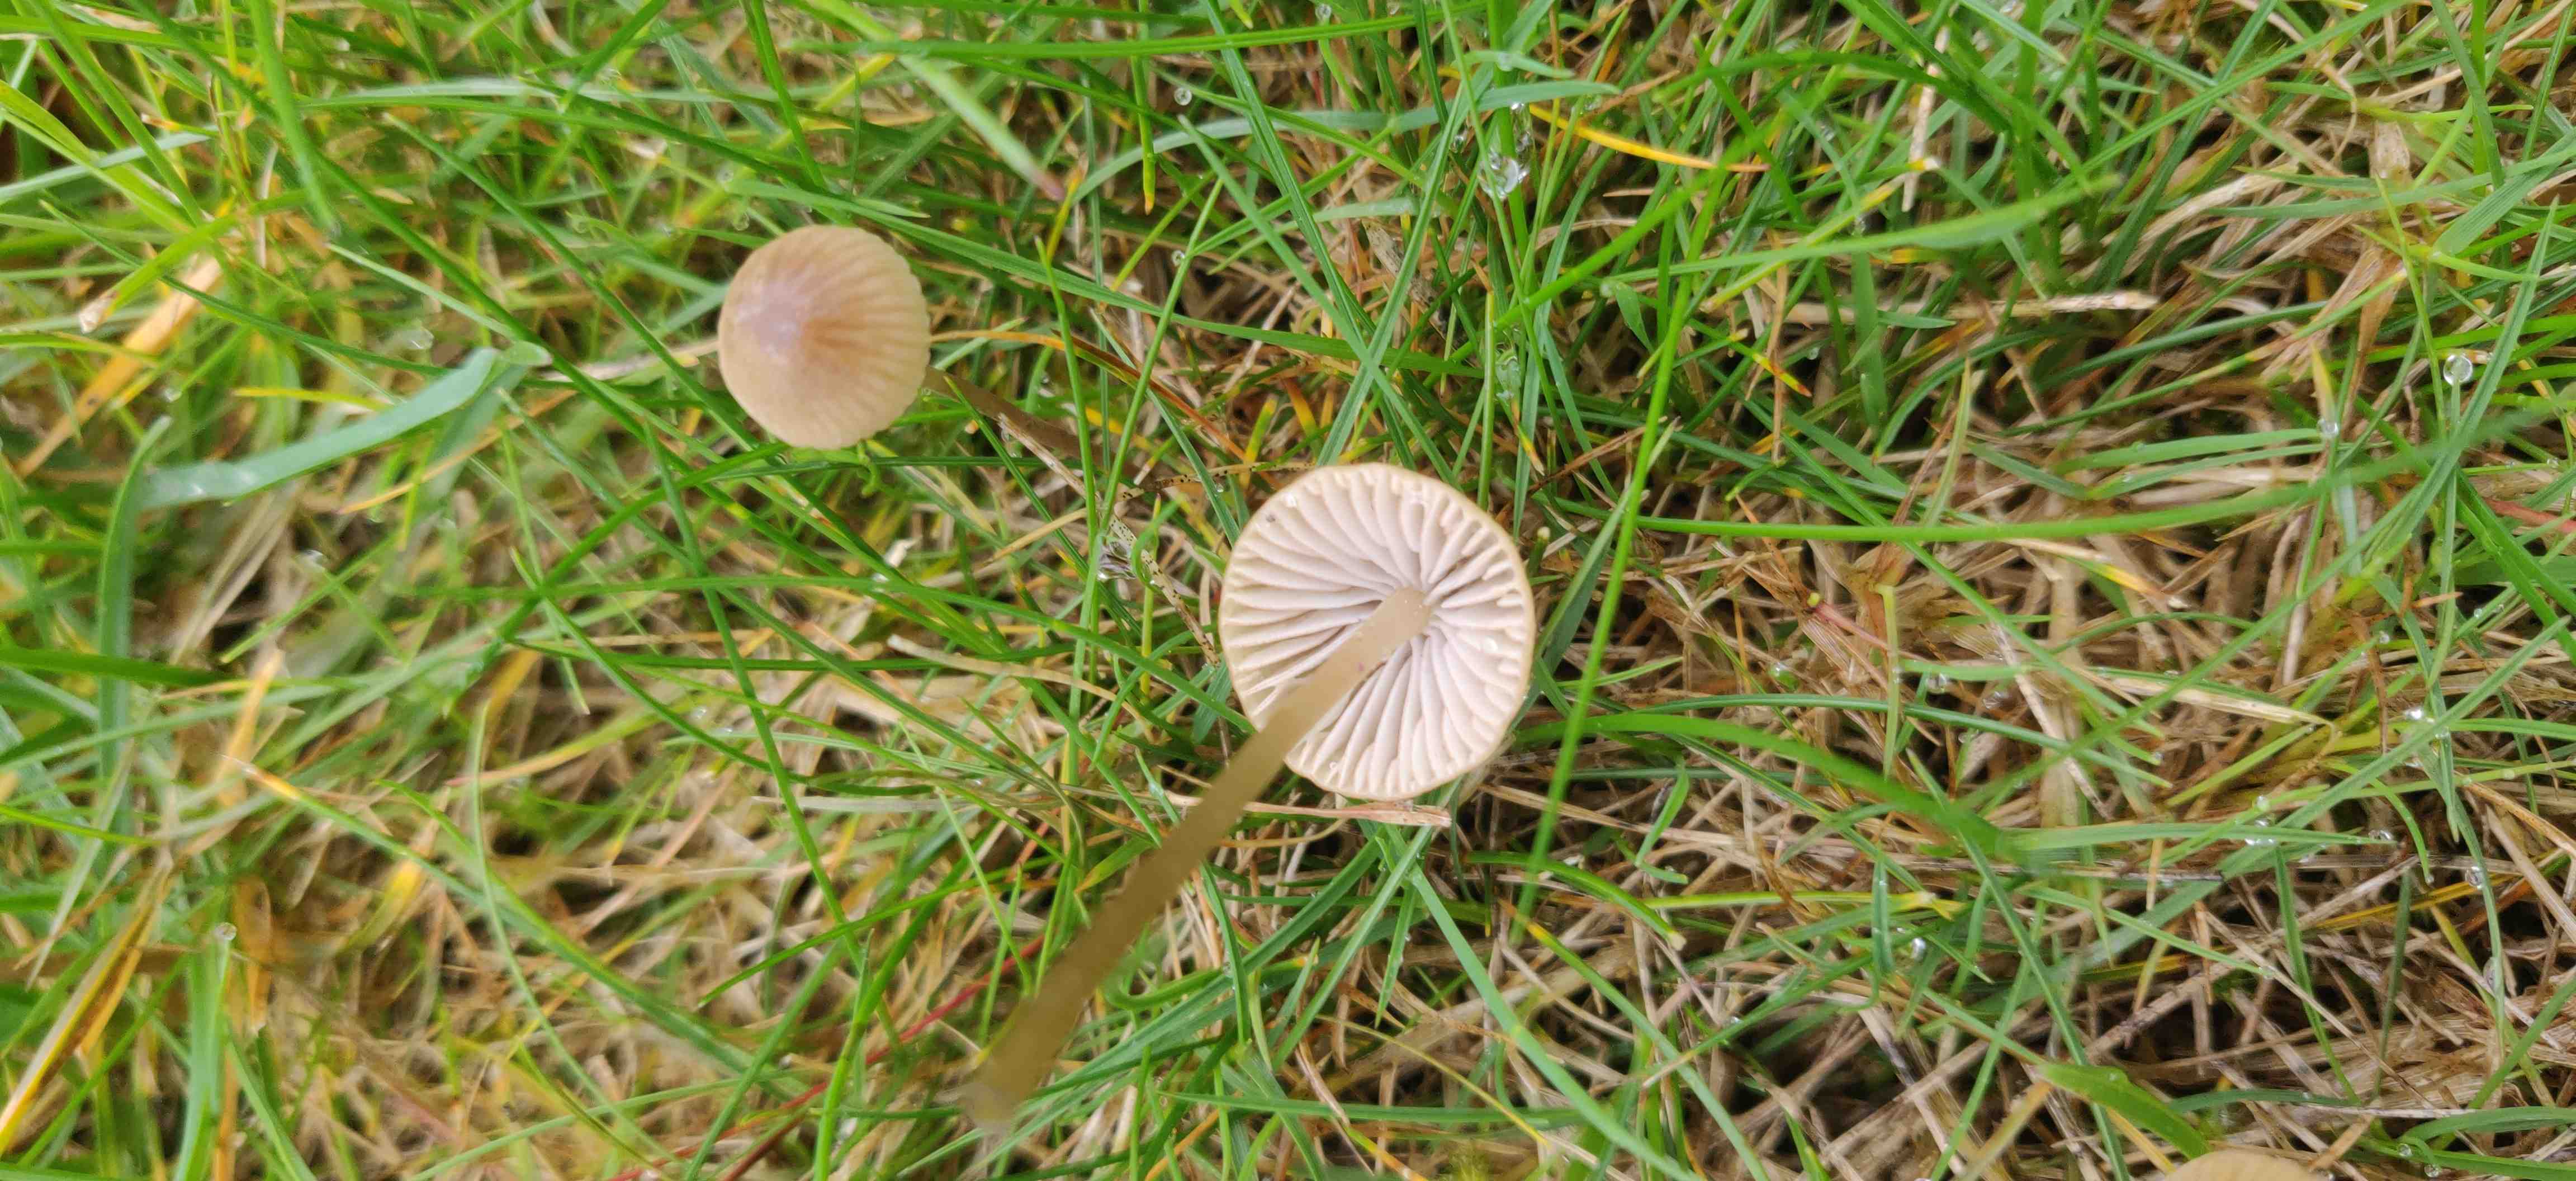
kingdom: Fungi
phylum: Basidiomycota
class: Agaricomycetes
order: Agaricales
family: Mycenaceae
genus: Mycena
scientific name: Mycena olivaceomarginata
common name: brunægget huesvamp
